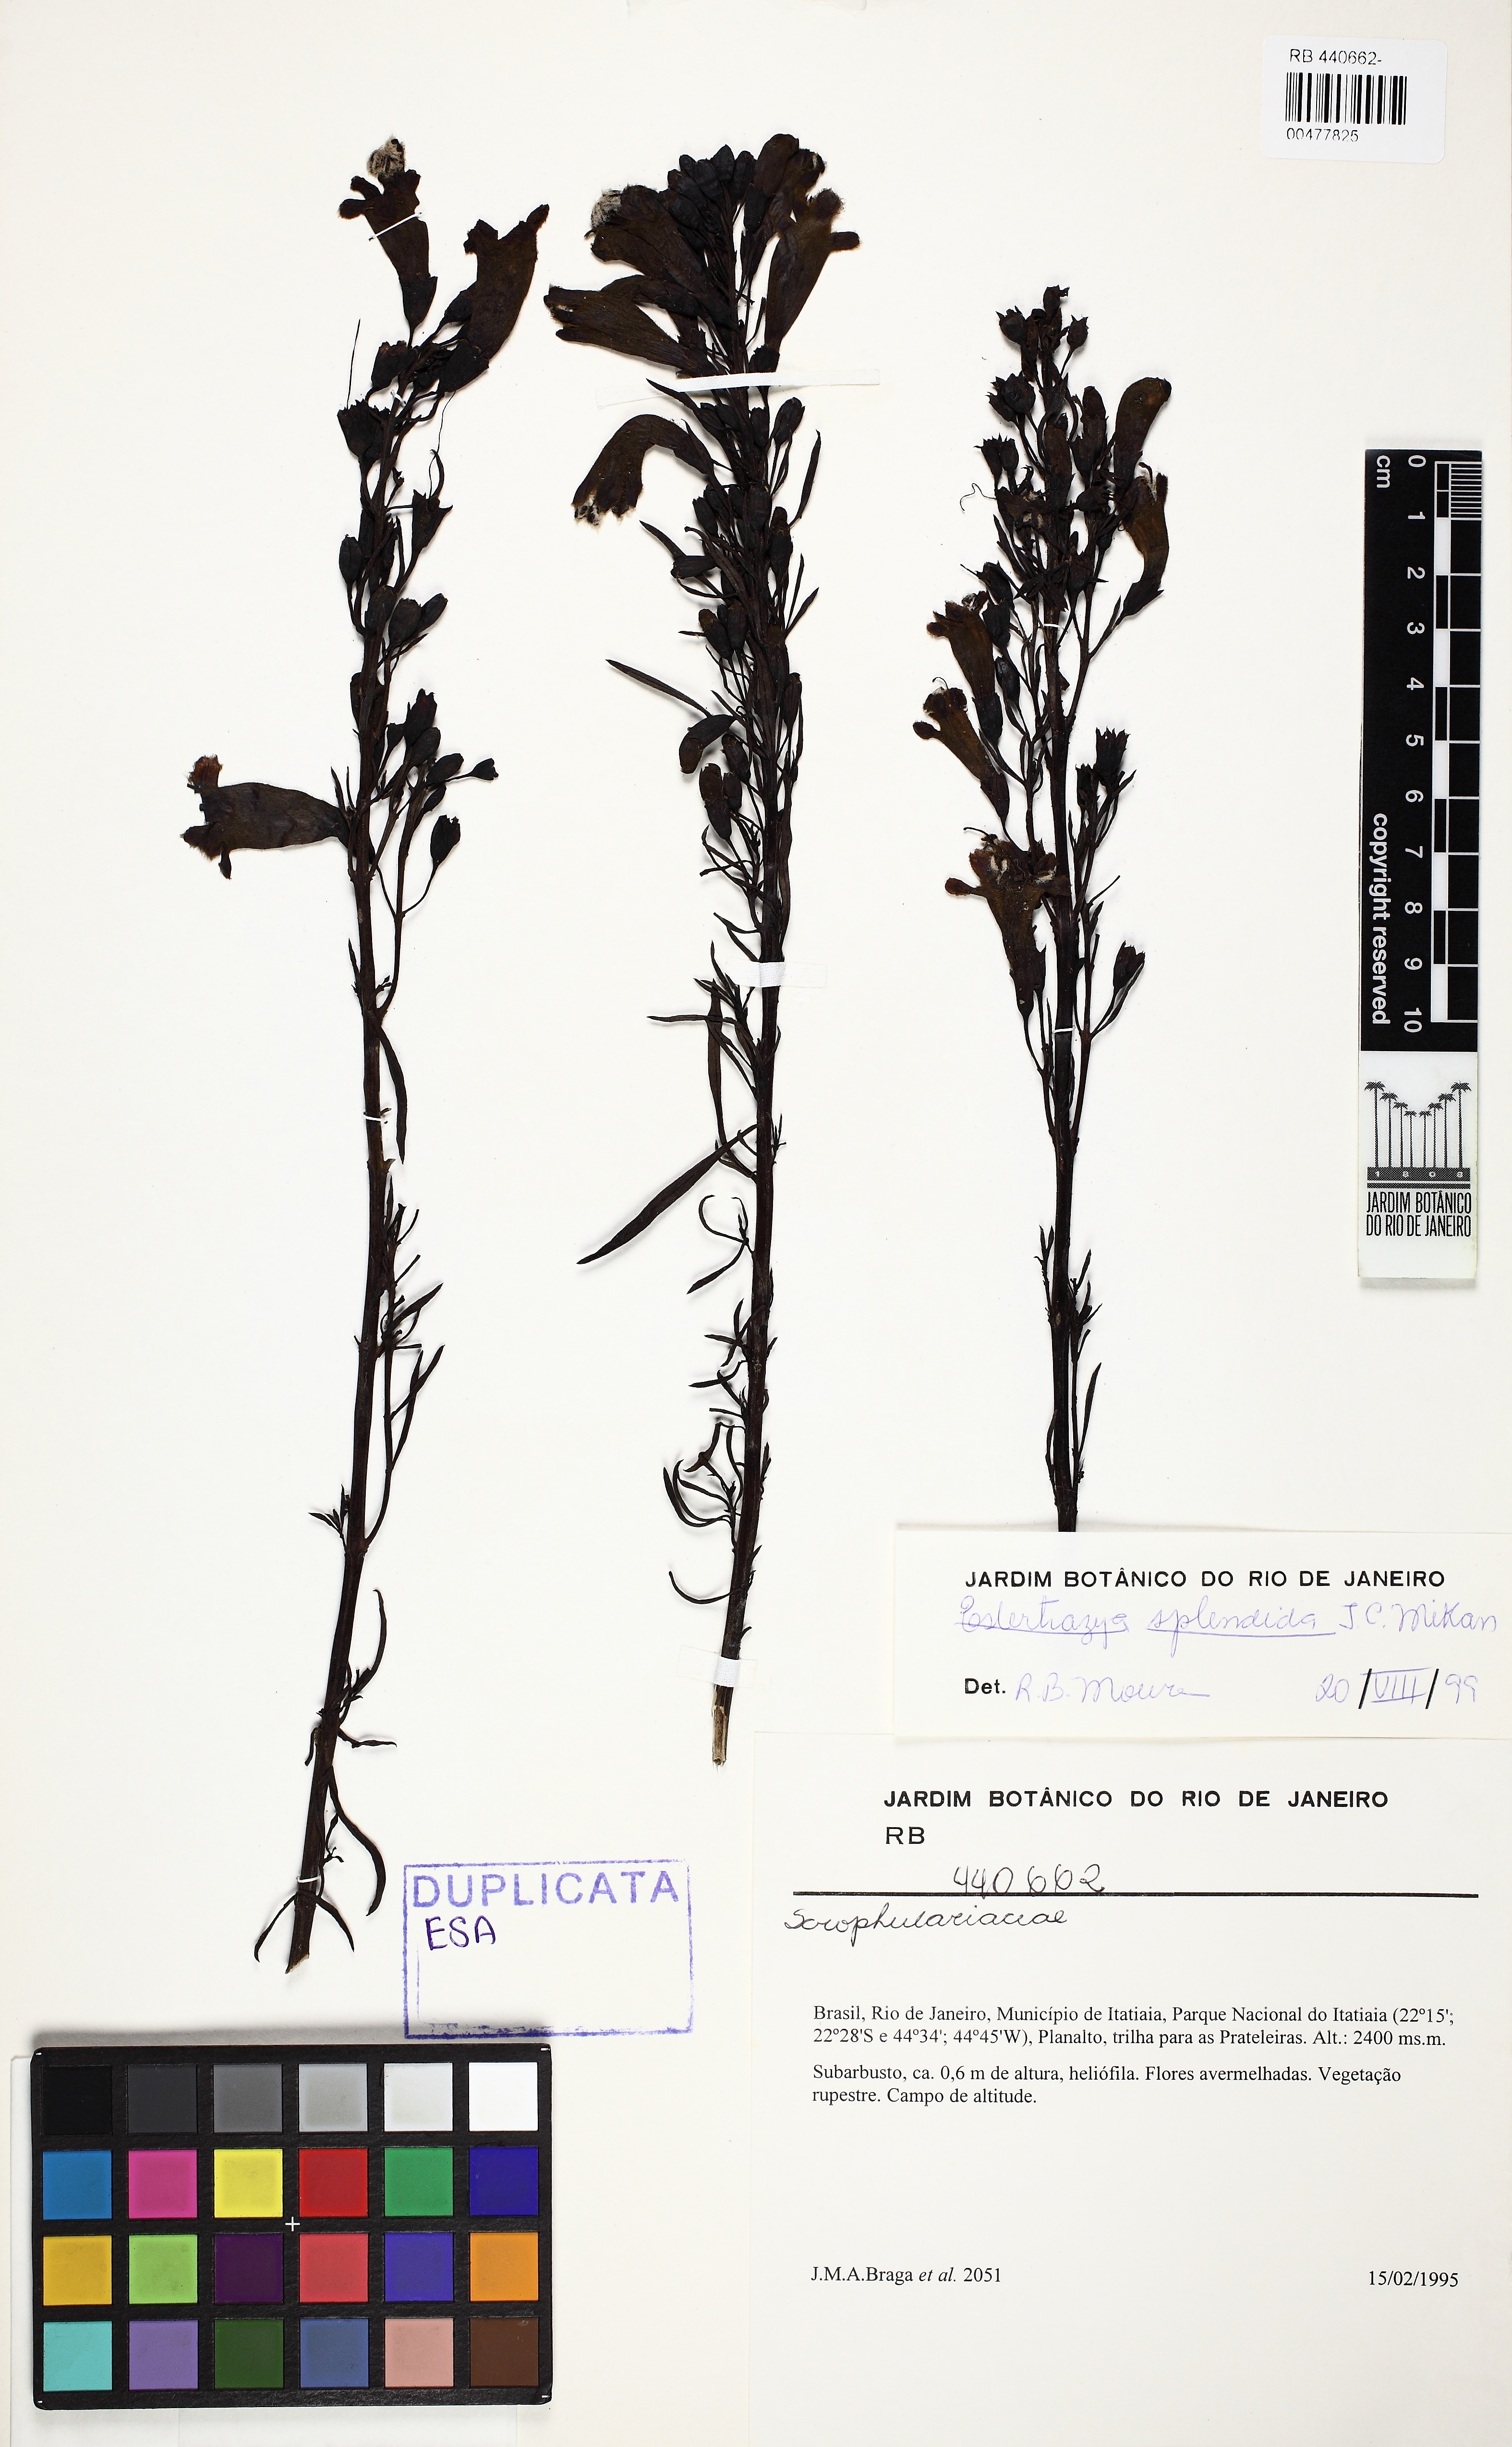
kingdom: Plantae
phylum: Tracheophyta
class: Magnoliopsida
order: Lamiales
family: Orobanchaceae
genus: Esterhazya
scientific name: Esterhazya splendida
